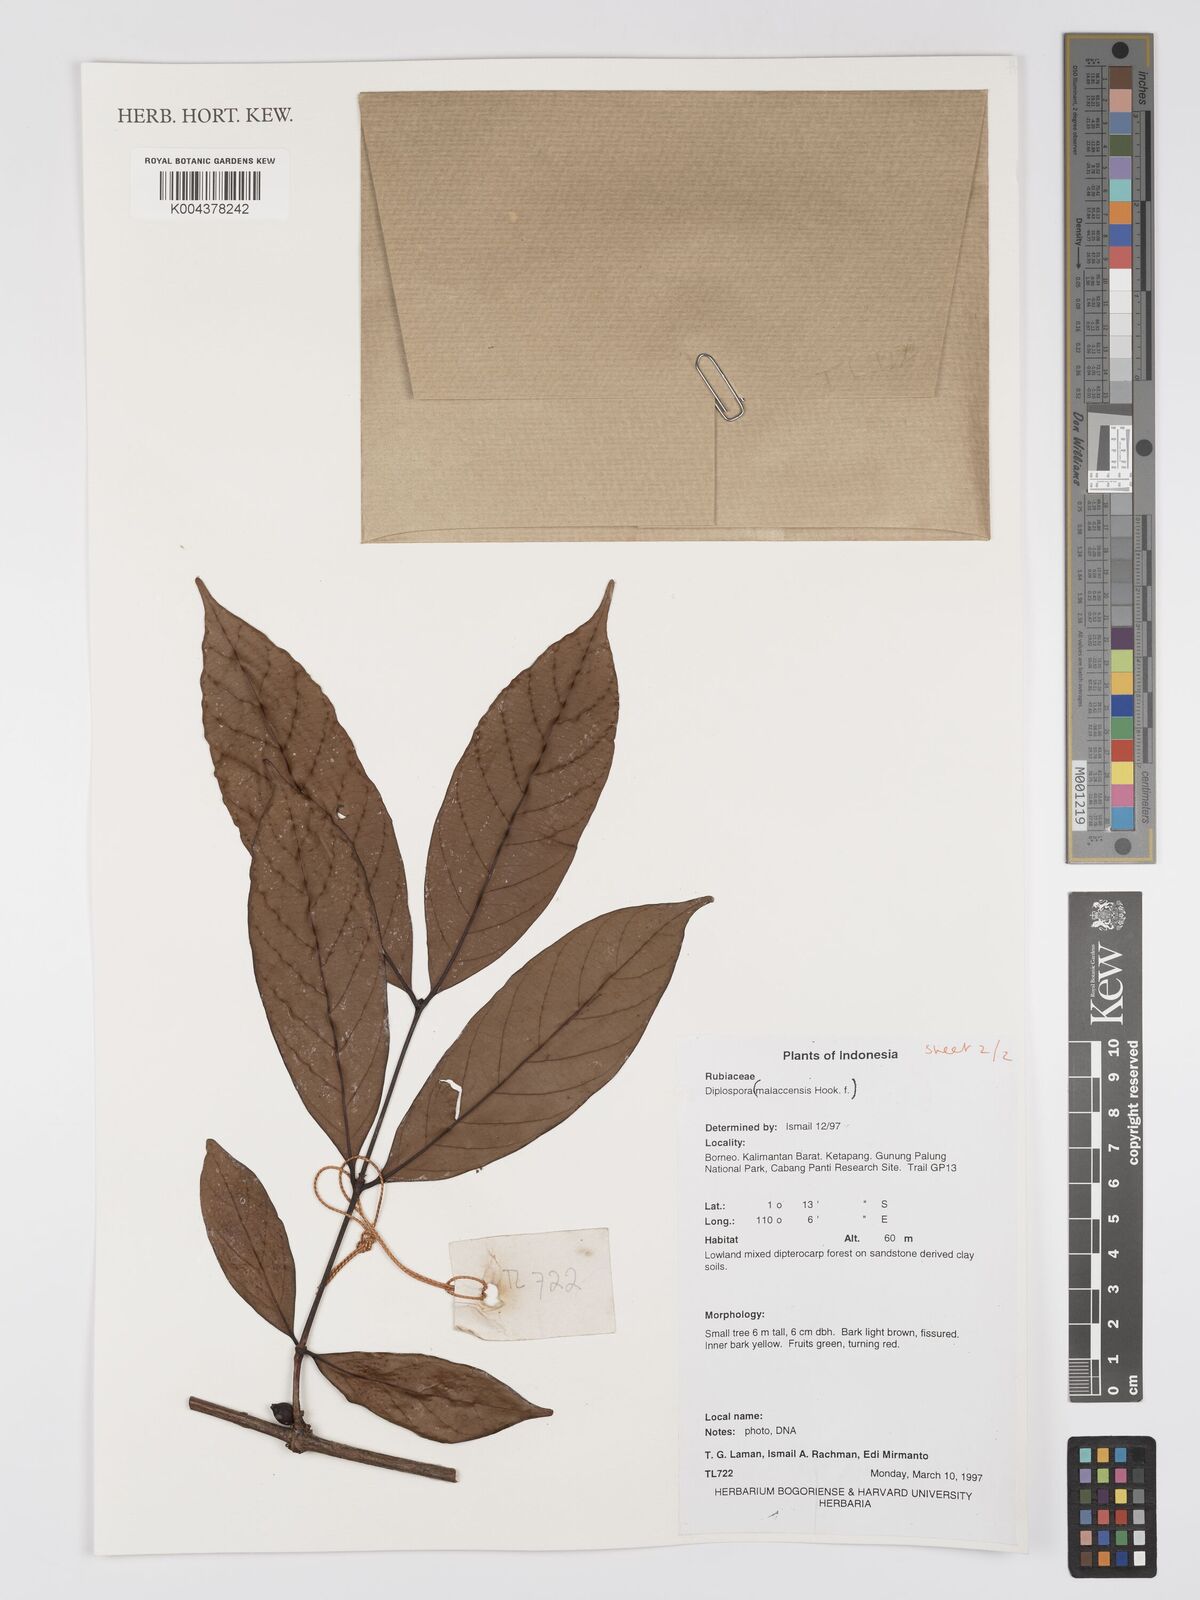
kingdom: Plantae
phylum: Tracheophyta
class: Magnoliopsida
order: Gentianales
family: Rubiaceae
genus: Discospermum
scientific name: Discospermum malaccense
